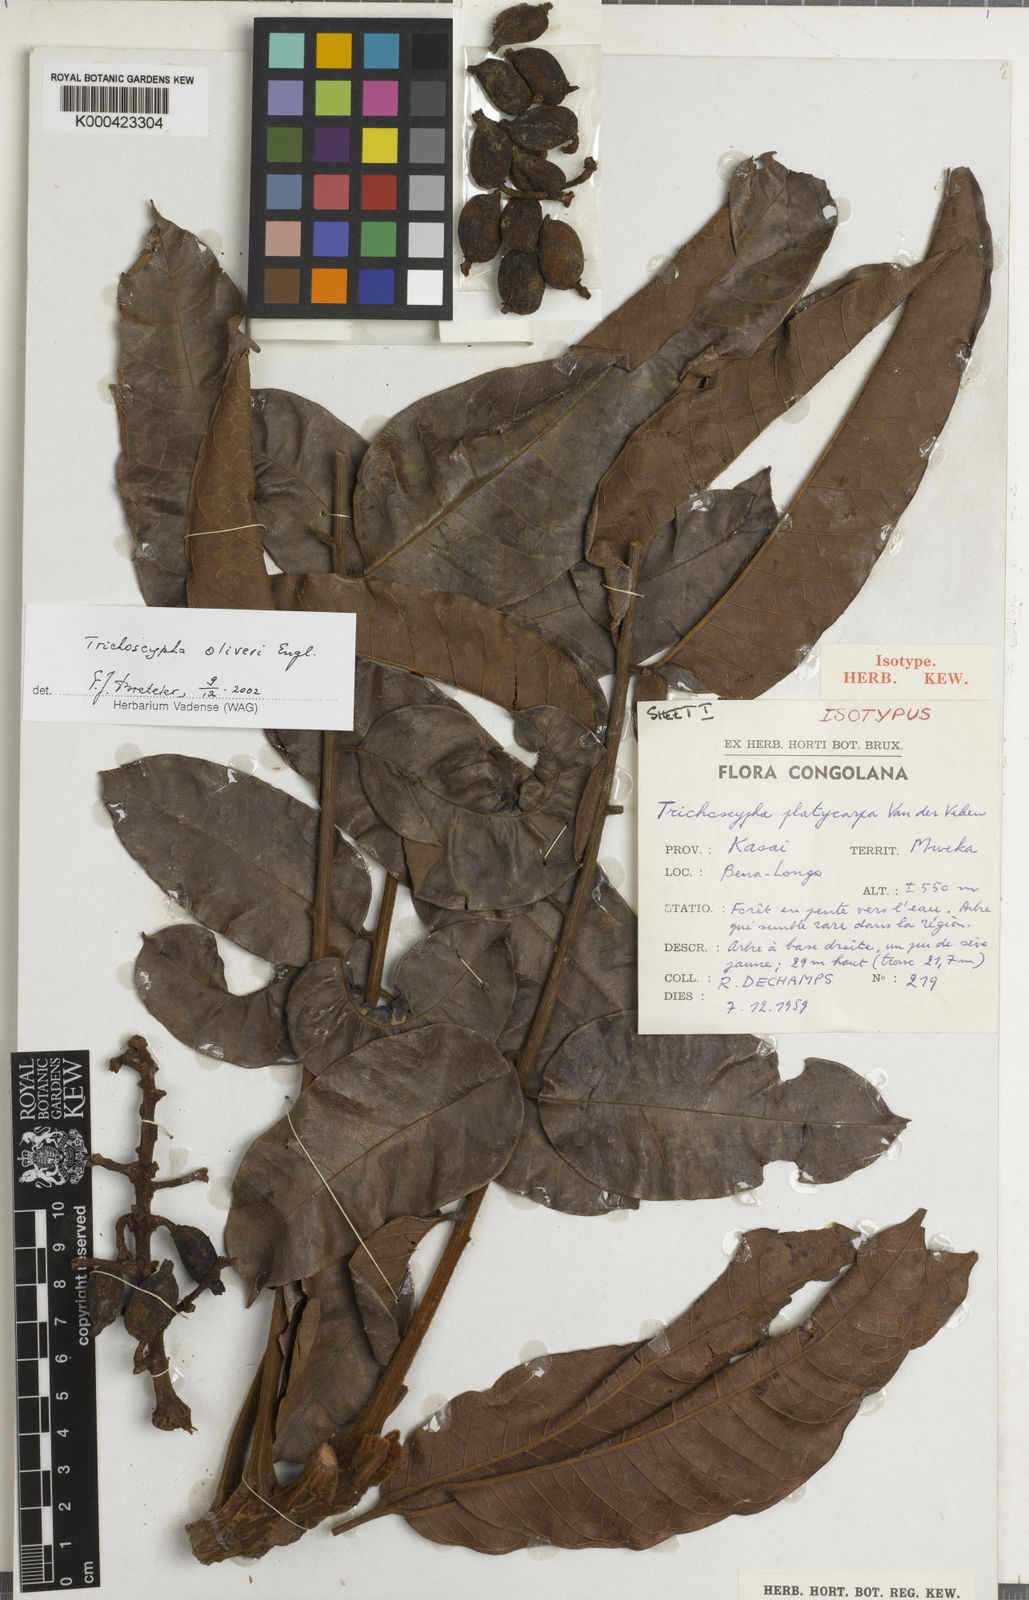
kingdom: Plantae
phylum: Tracheophyta
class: Magnoliopsida
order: Sapindales
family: Anacardiaceae
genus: Trichoscypha
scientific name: Trichoscypha oliveri
